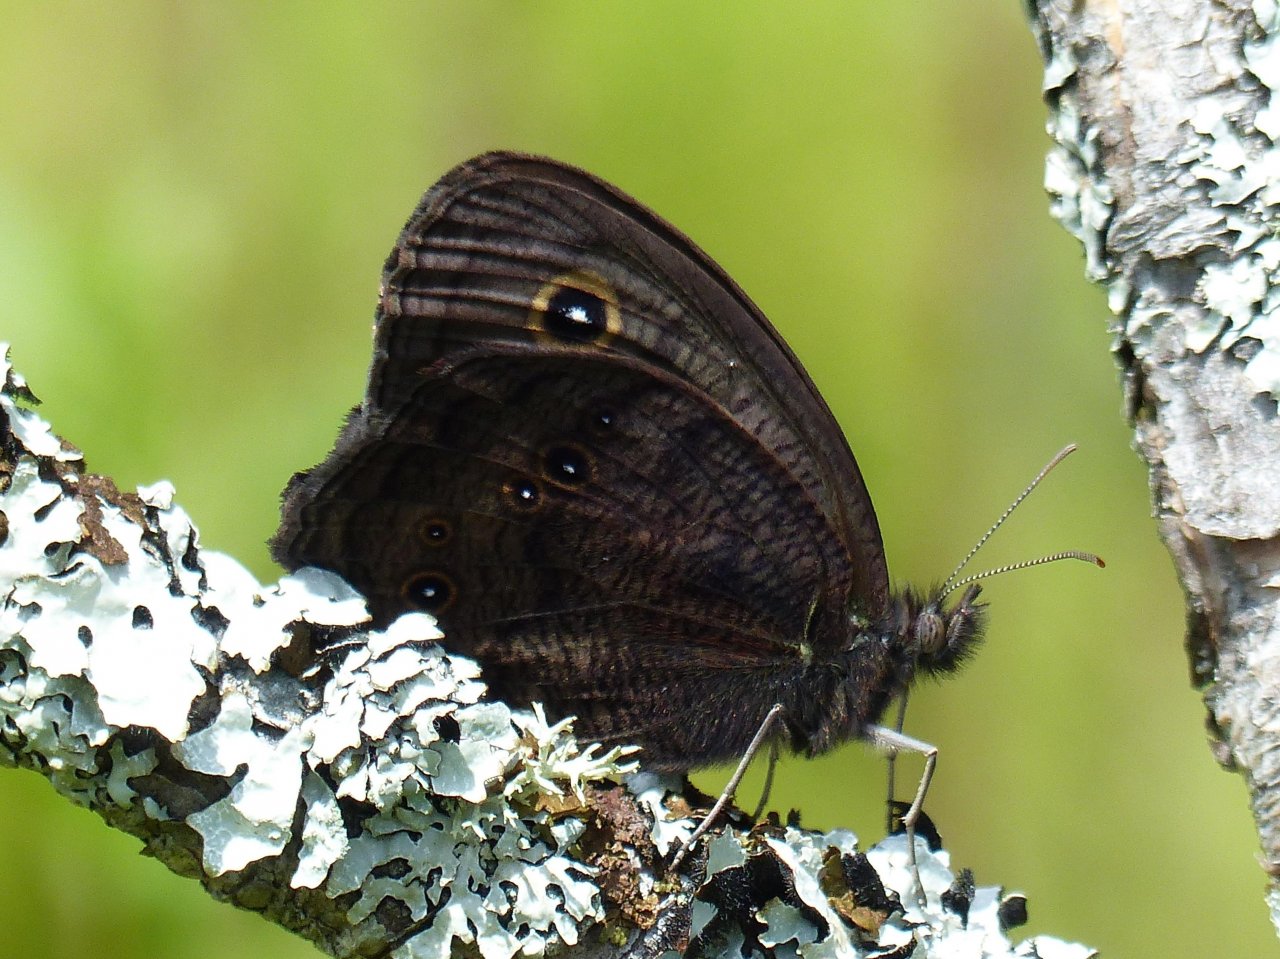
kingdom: Animalia
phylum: Arthropoda
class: Insecta
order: Lepidoptera
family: Nymphalidae
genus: Cercyonis
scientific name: Cercyonis pegala
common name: Common Wood-Nymph
